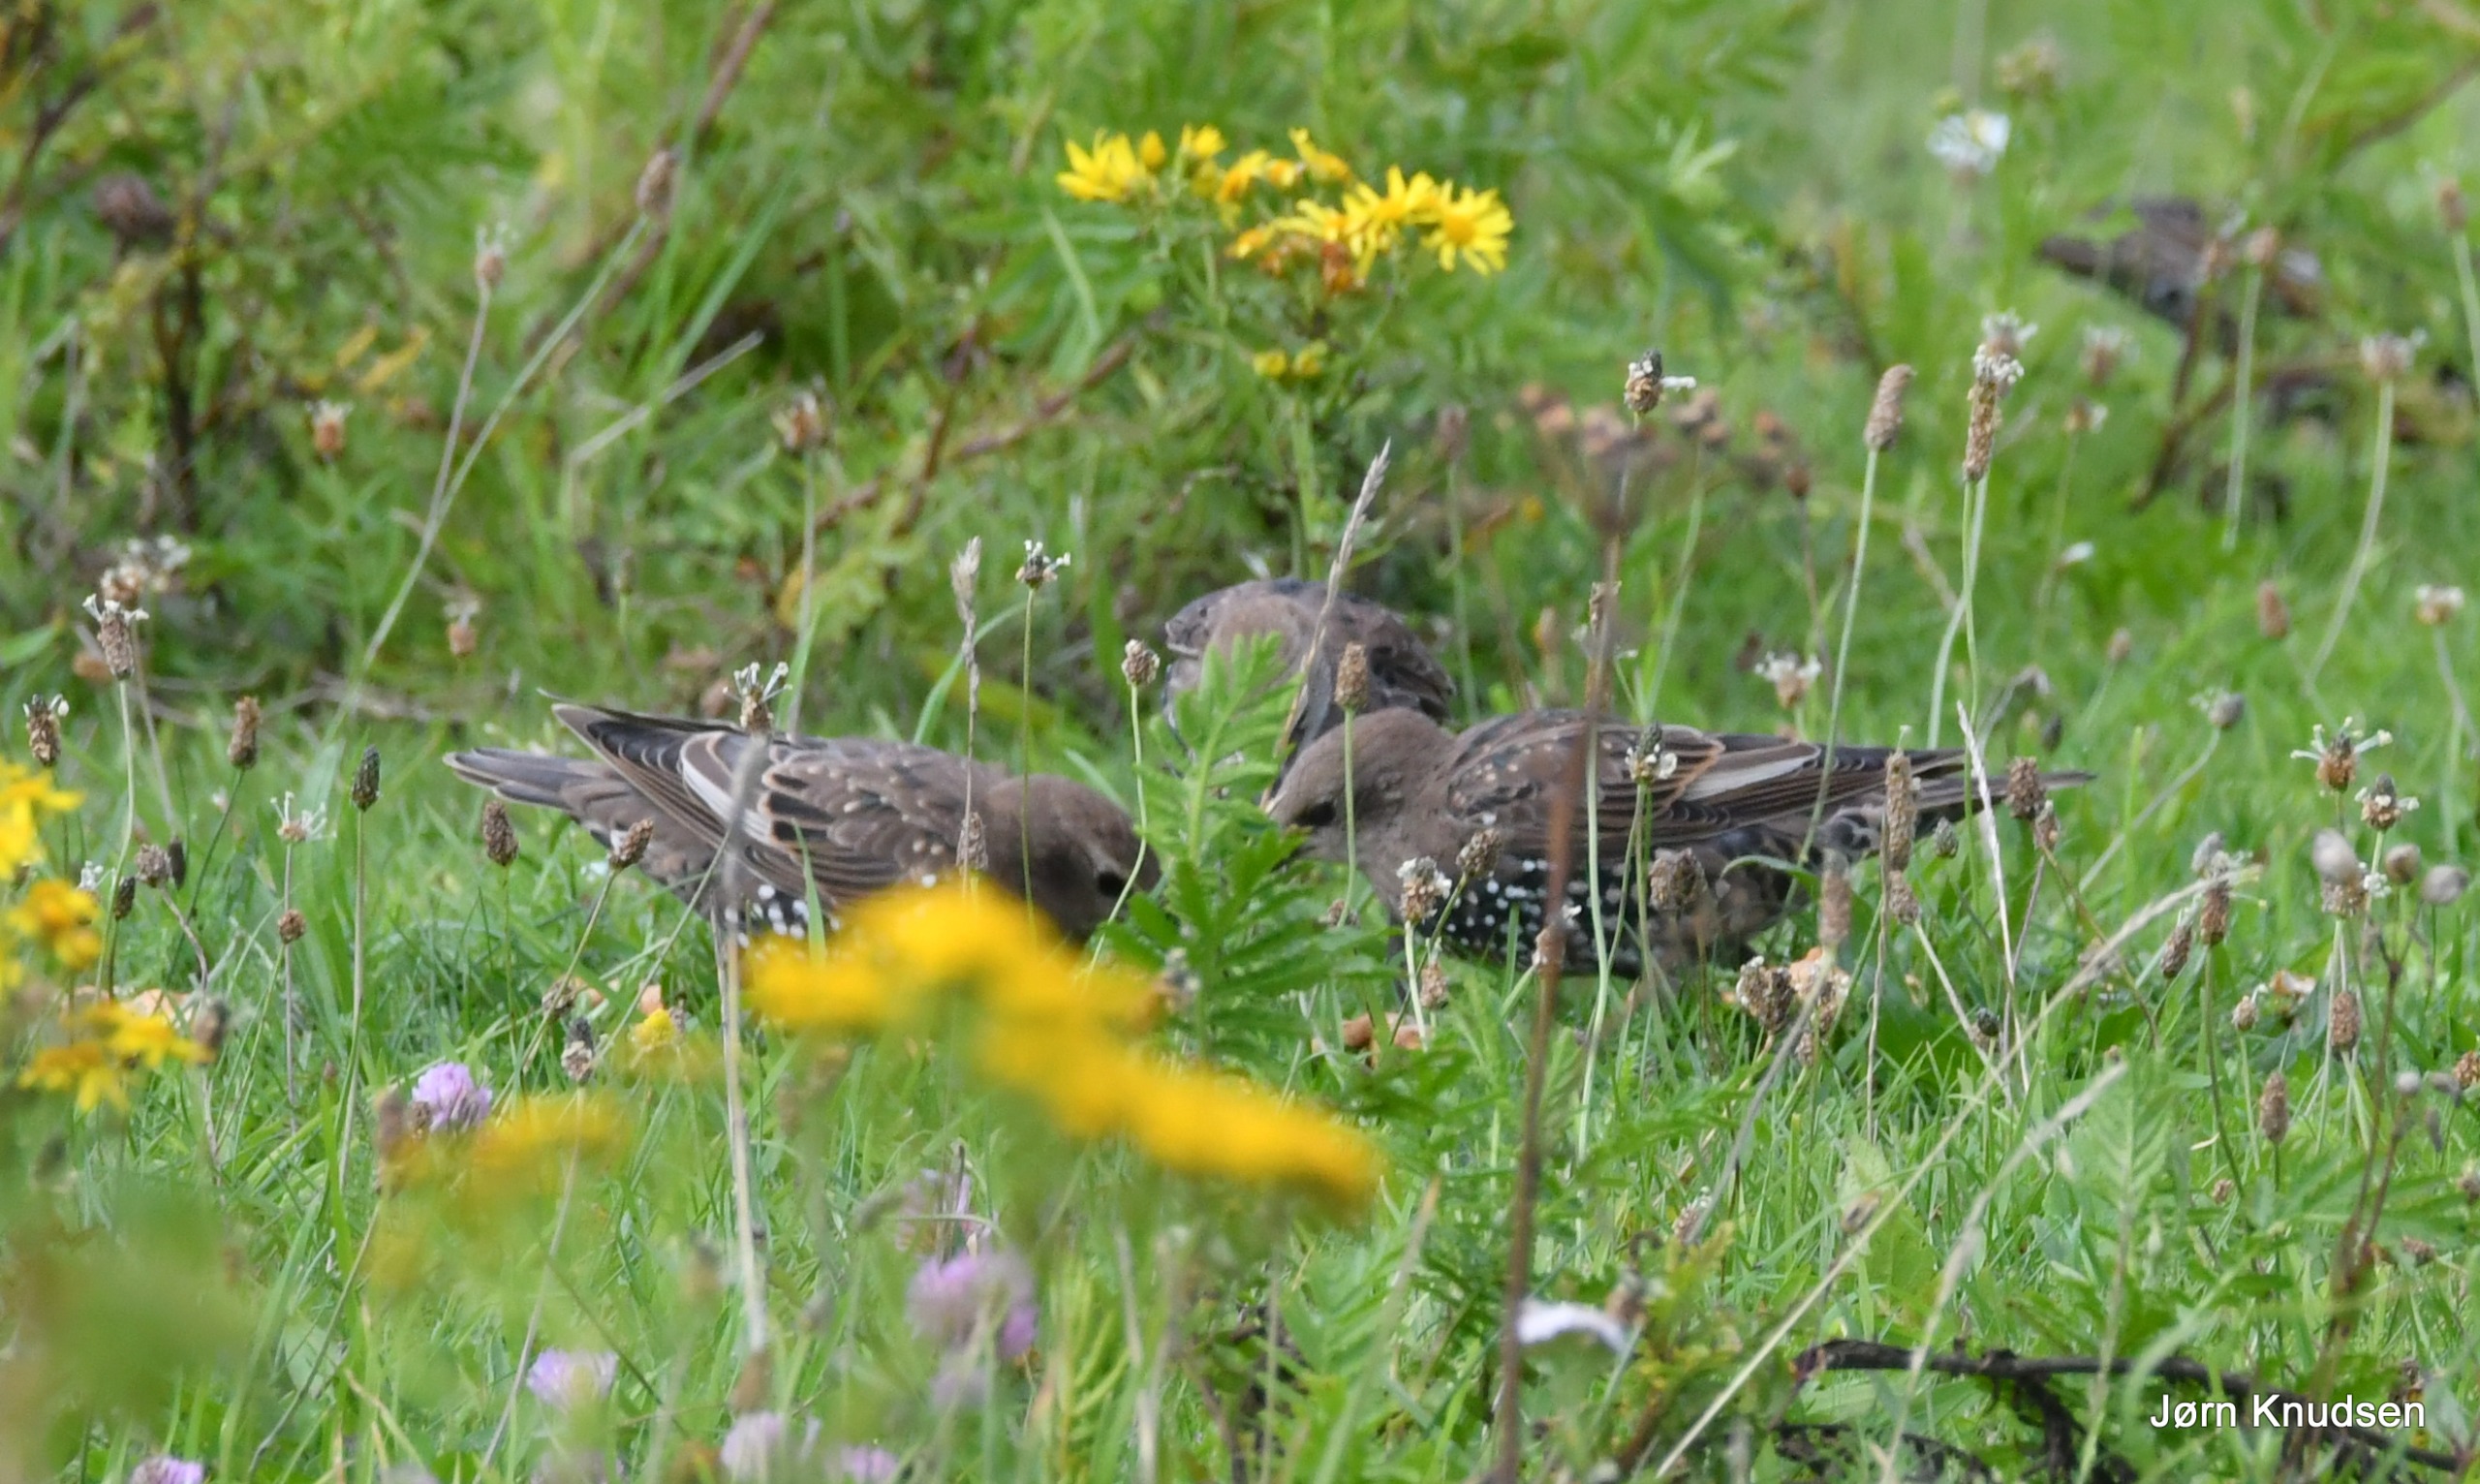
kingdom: Animalia
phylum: Chordata
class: Aves
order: Passeriformes
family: Sturnidae
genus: Sturnus
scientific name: Sturnus vulgaris
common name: Stær
